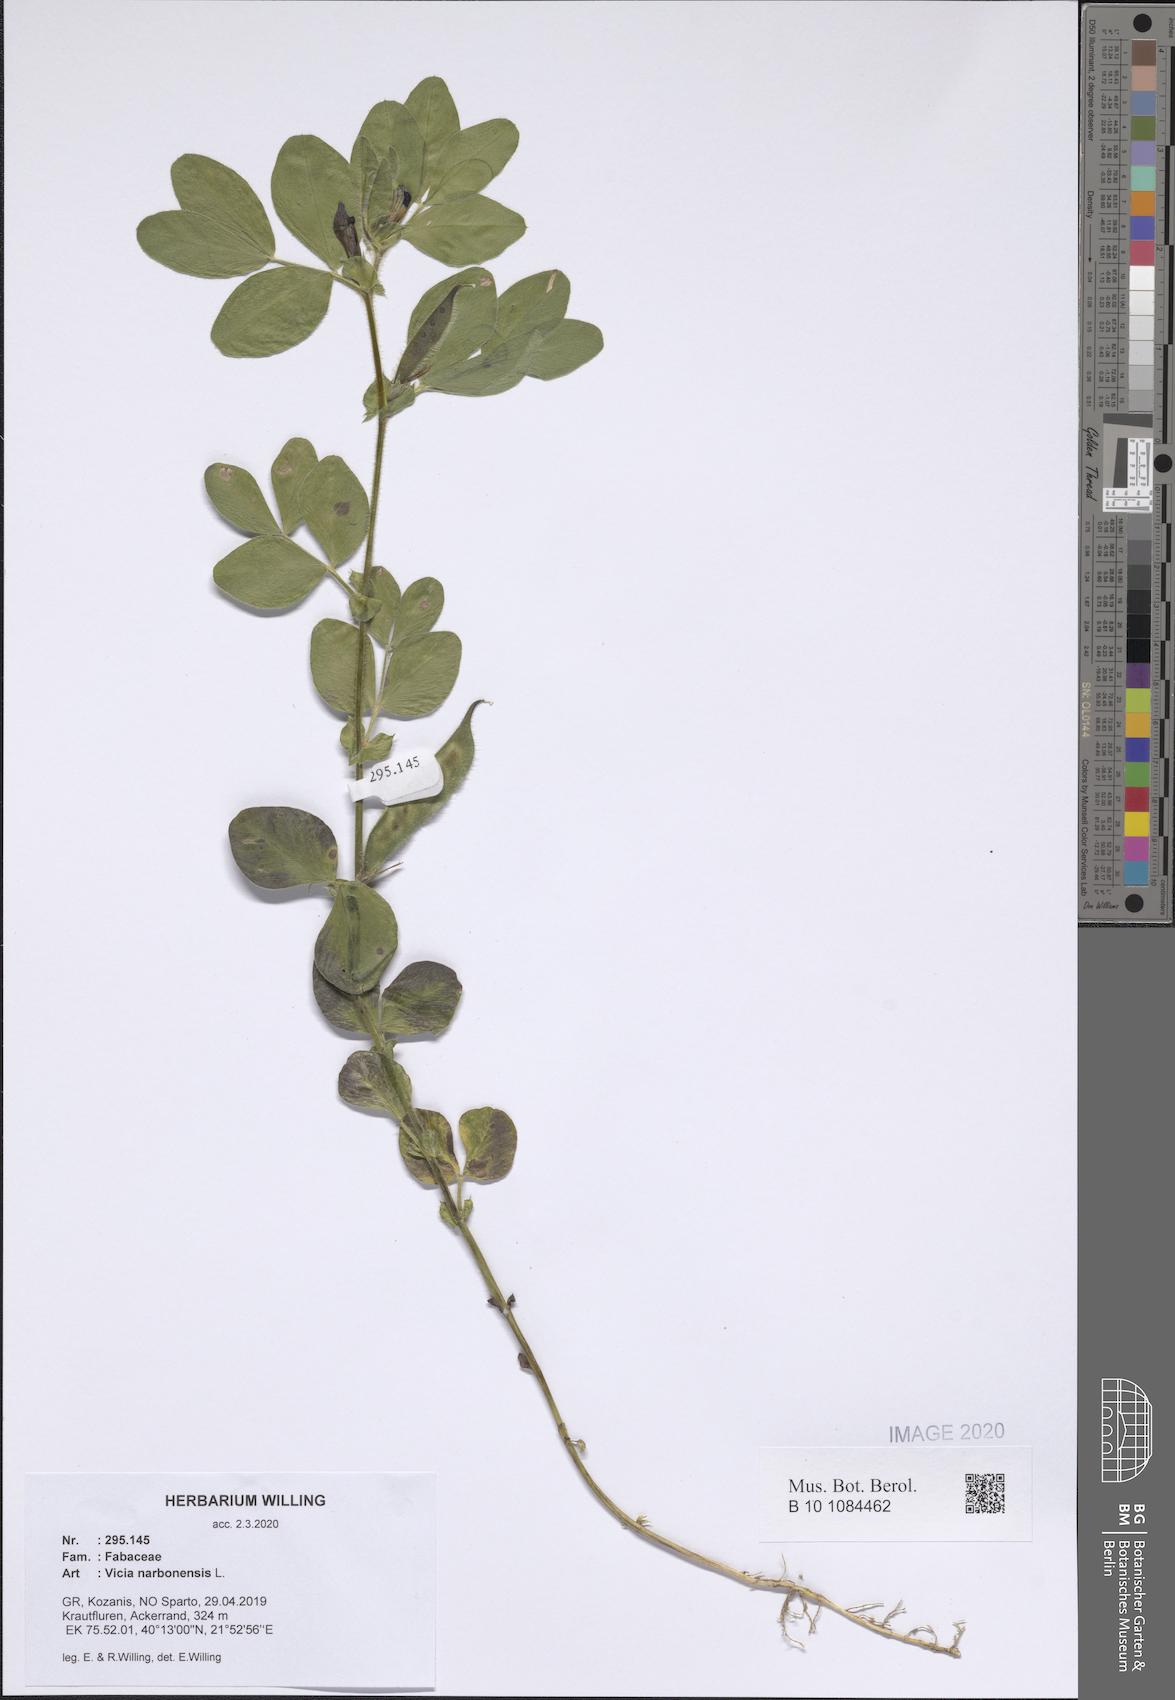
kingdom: Plantae
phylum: Tracheophyta
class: Magnoliopsida
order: Fabales
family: Fabaceae
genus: Vicia
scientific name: Vicia narbonensis
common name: Narbonne vetch
